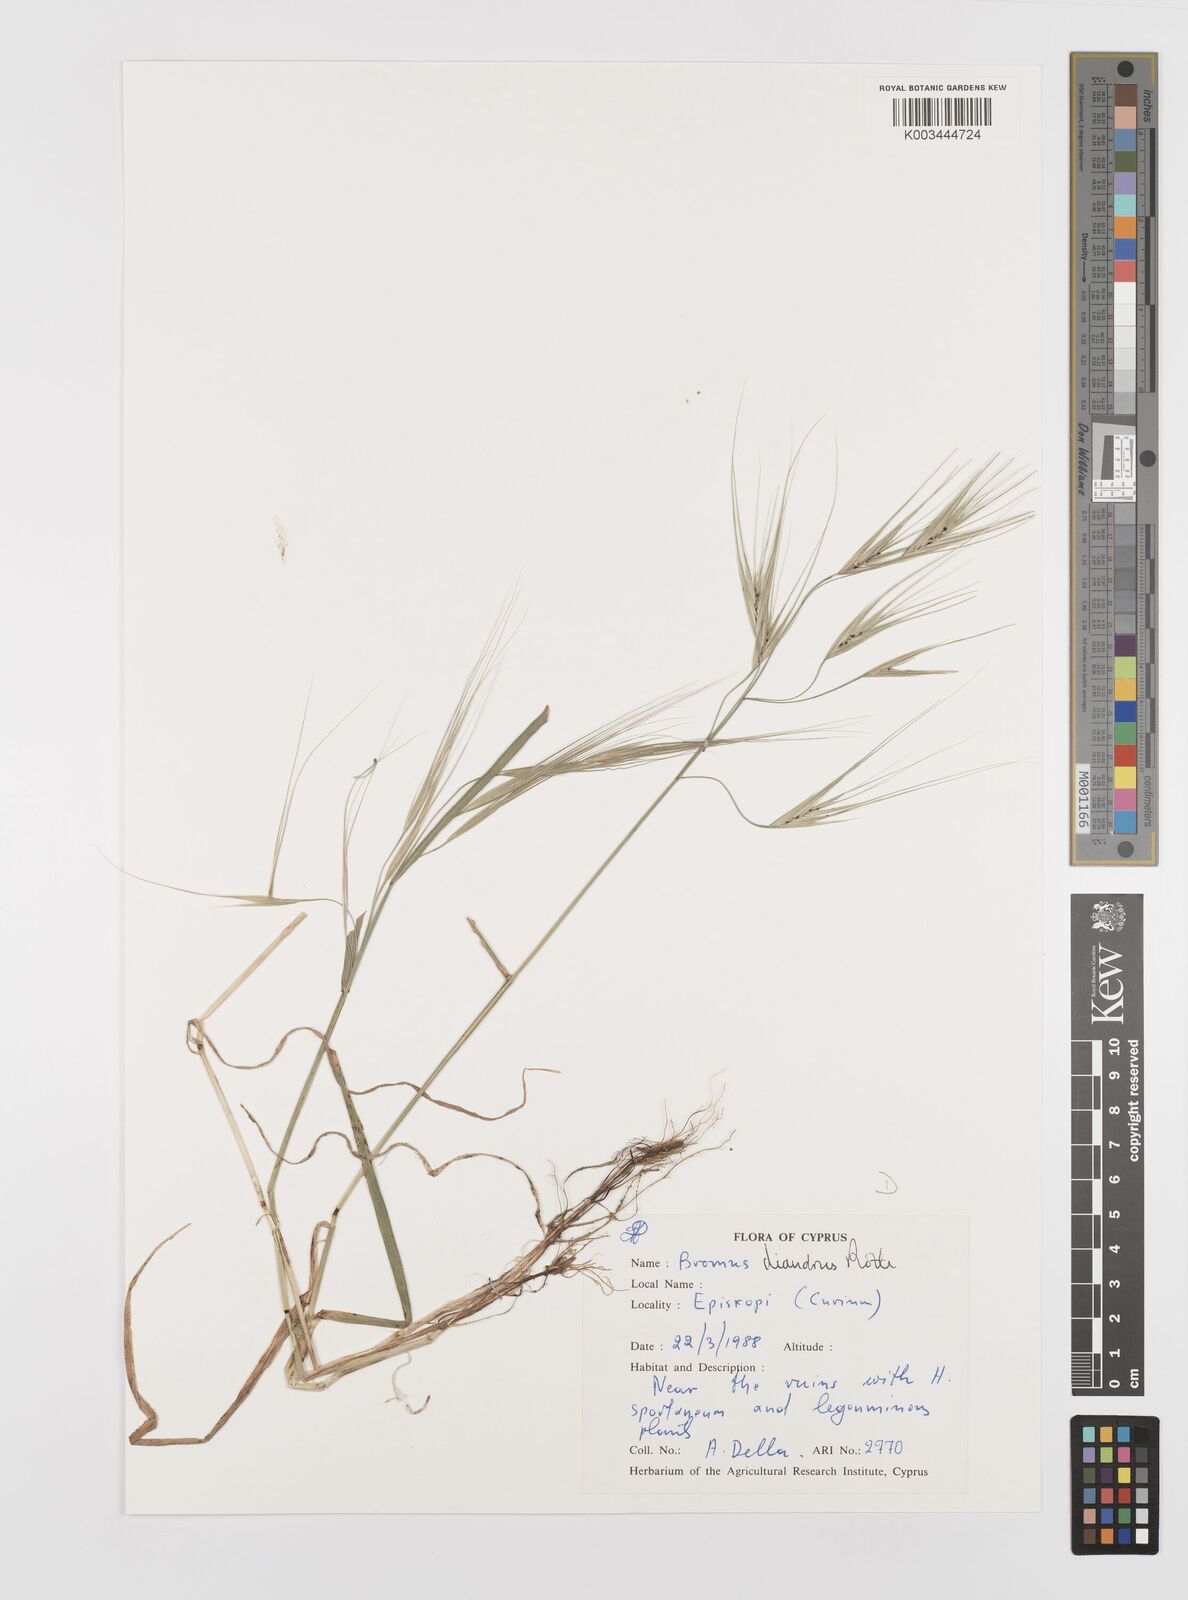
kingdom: Plantae
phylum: Tracheophyta
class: Liliopsida
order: Poales
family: Poaceae
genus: Bromus
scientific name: Bromus diandrus
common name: Ripgut brome
